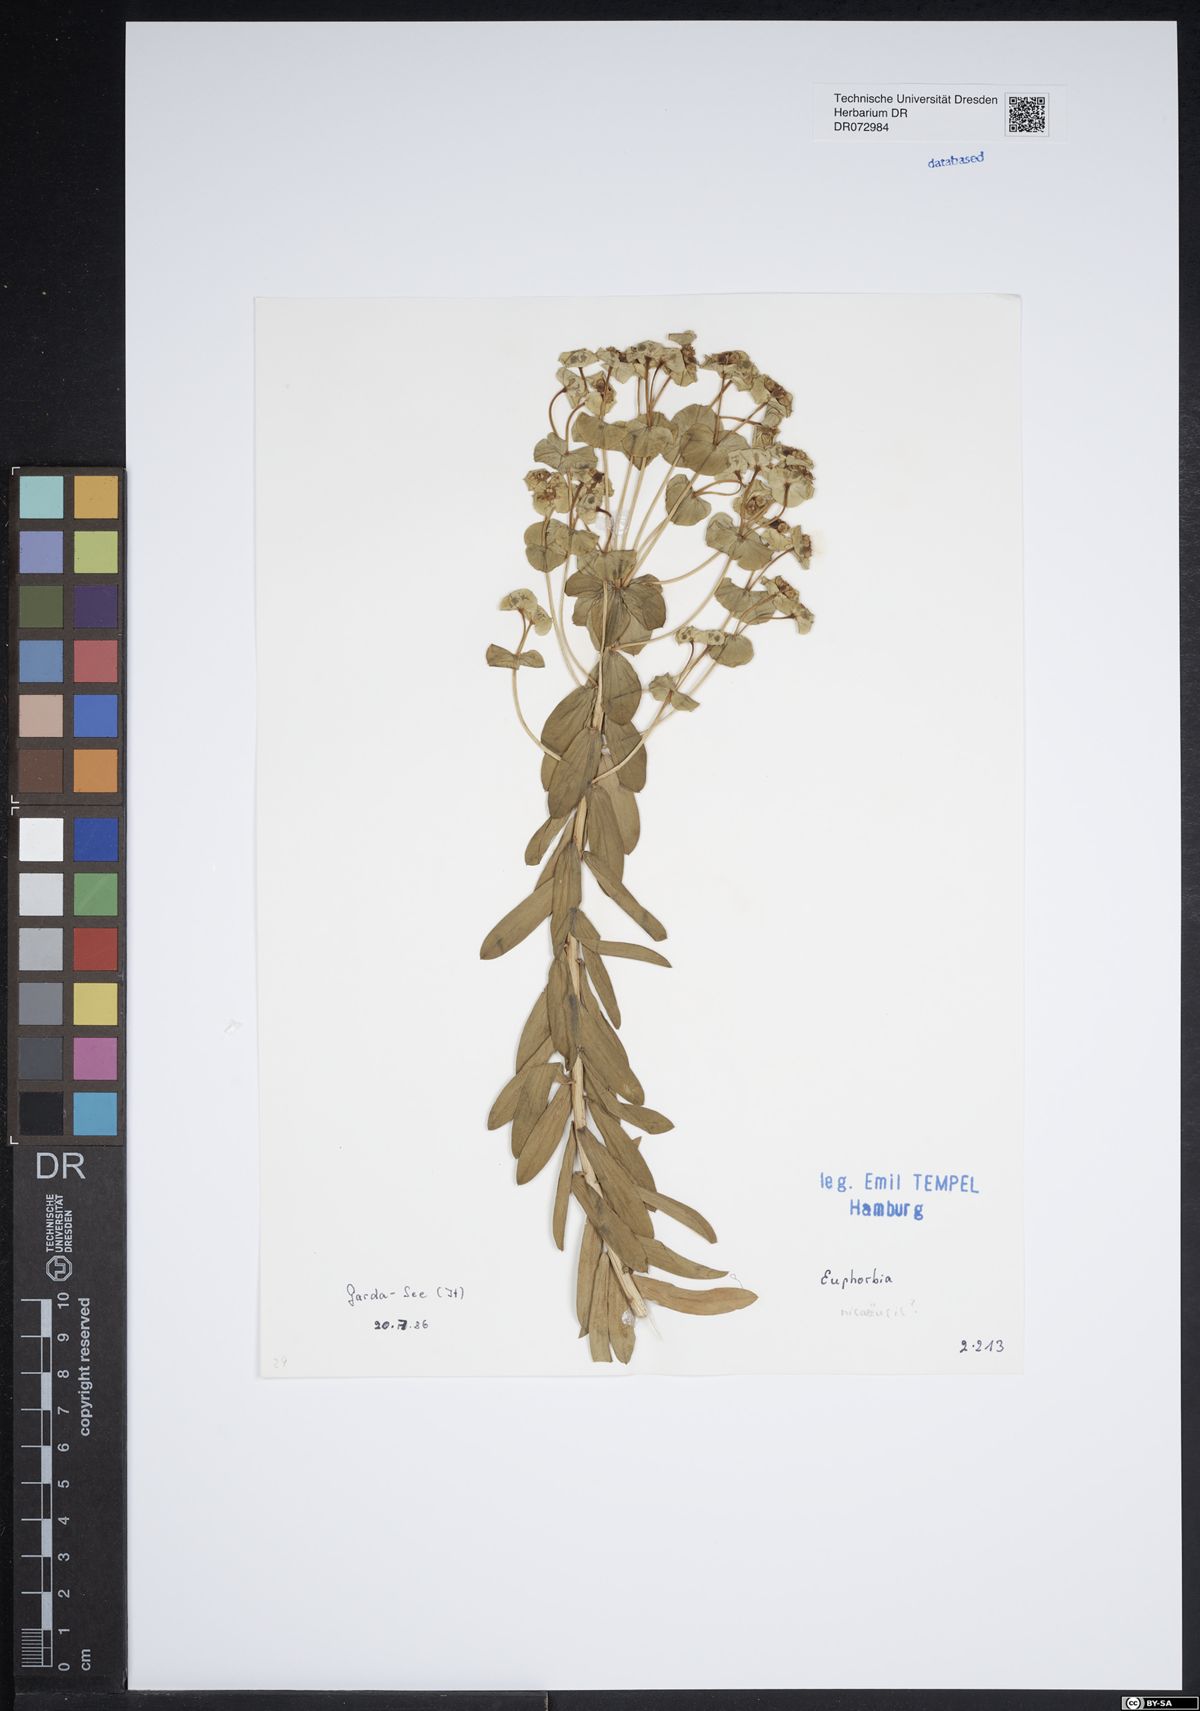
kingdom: Plantae
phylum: Tracheophyta
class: Magnoliopsida
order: Malpighiales
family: Euphorbiaceae
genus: Euphorbia
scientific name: Euphorbia nicaeensis
